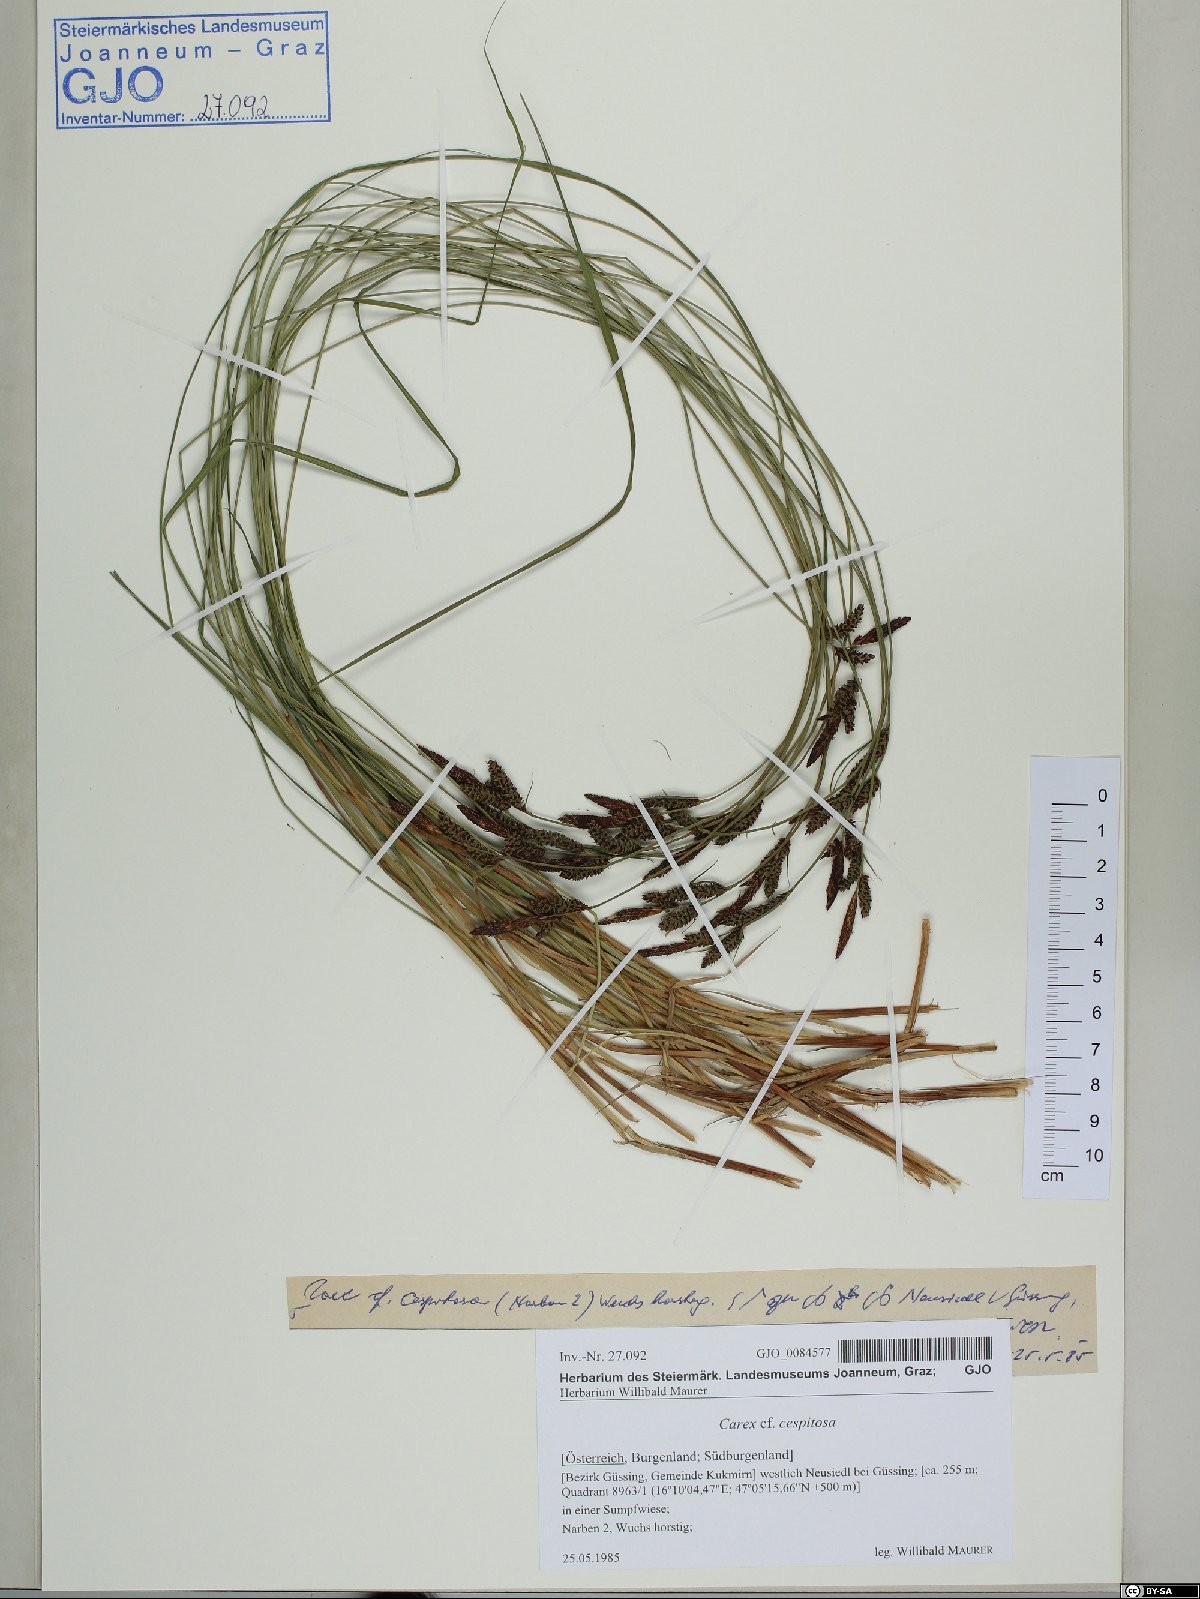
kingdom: Plantae
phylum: Tracheophyta
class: Liliopsida
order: Poales
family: Cyperaceae
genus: Carex
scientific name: Carex cespitosa
